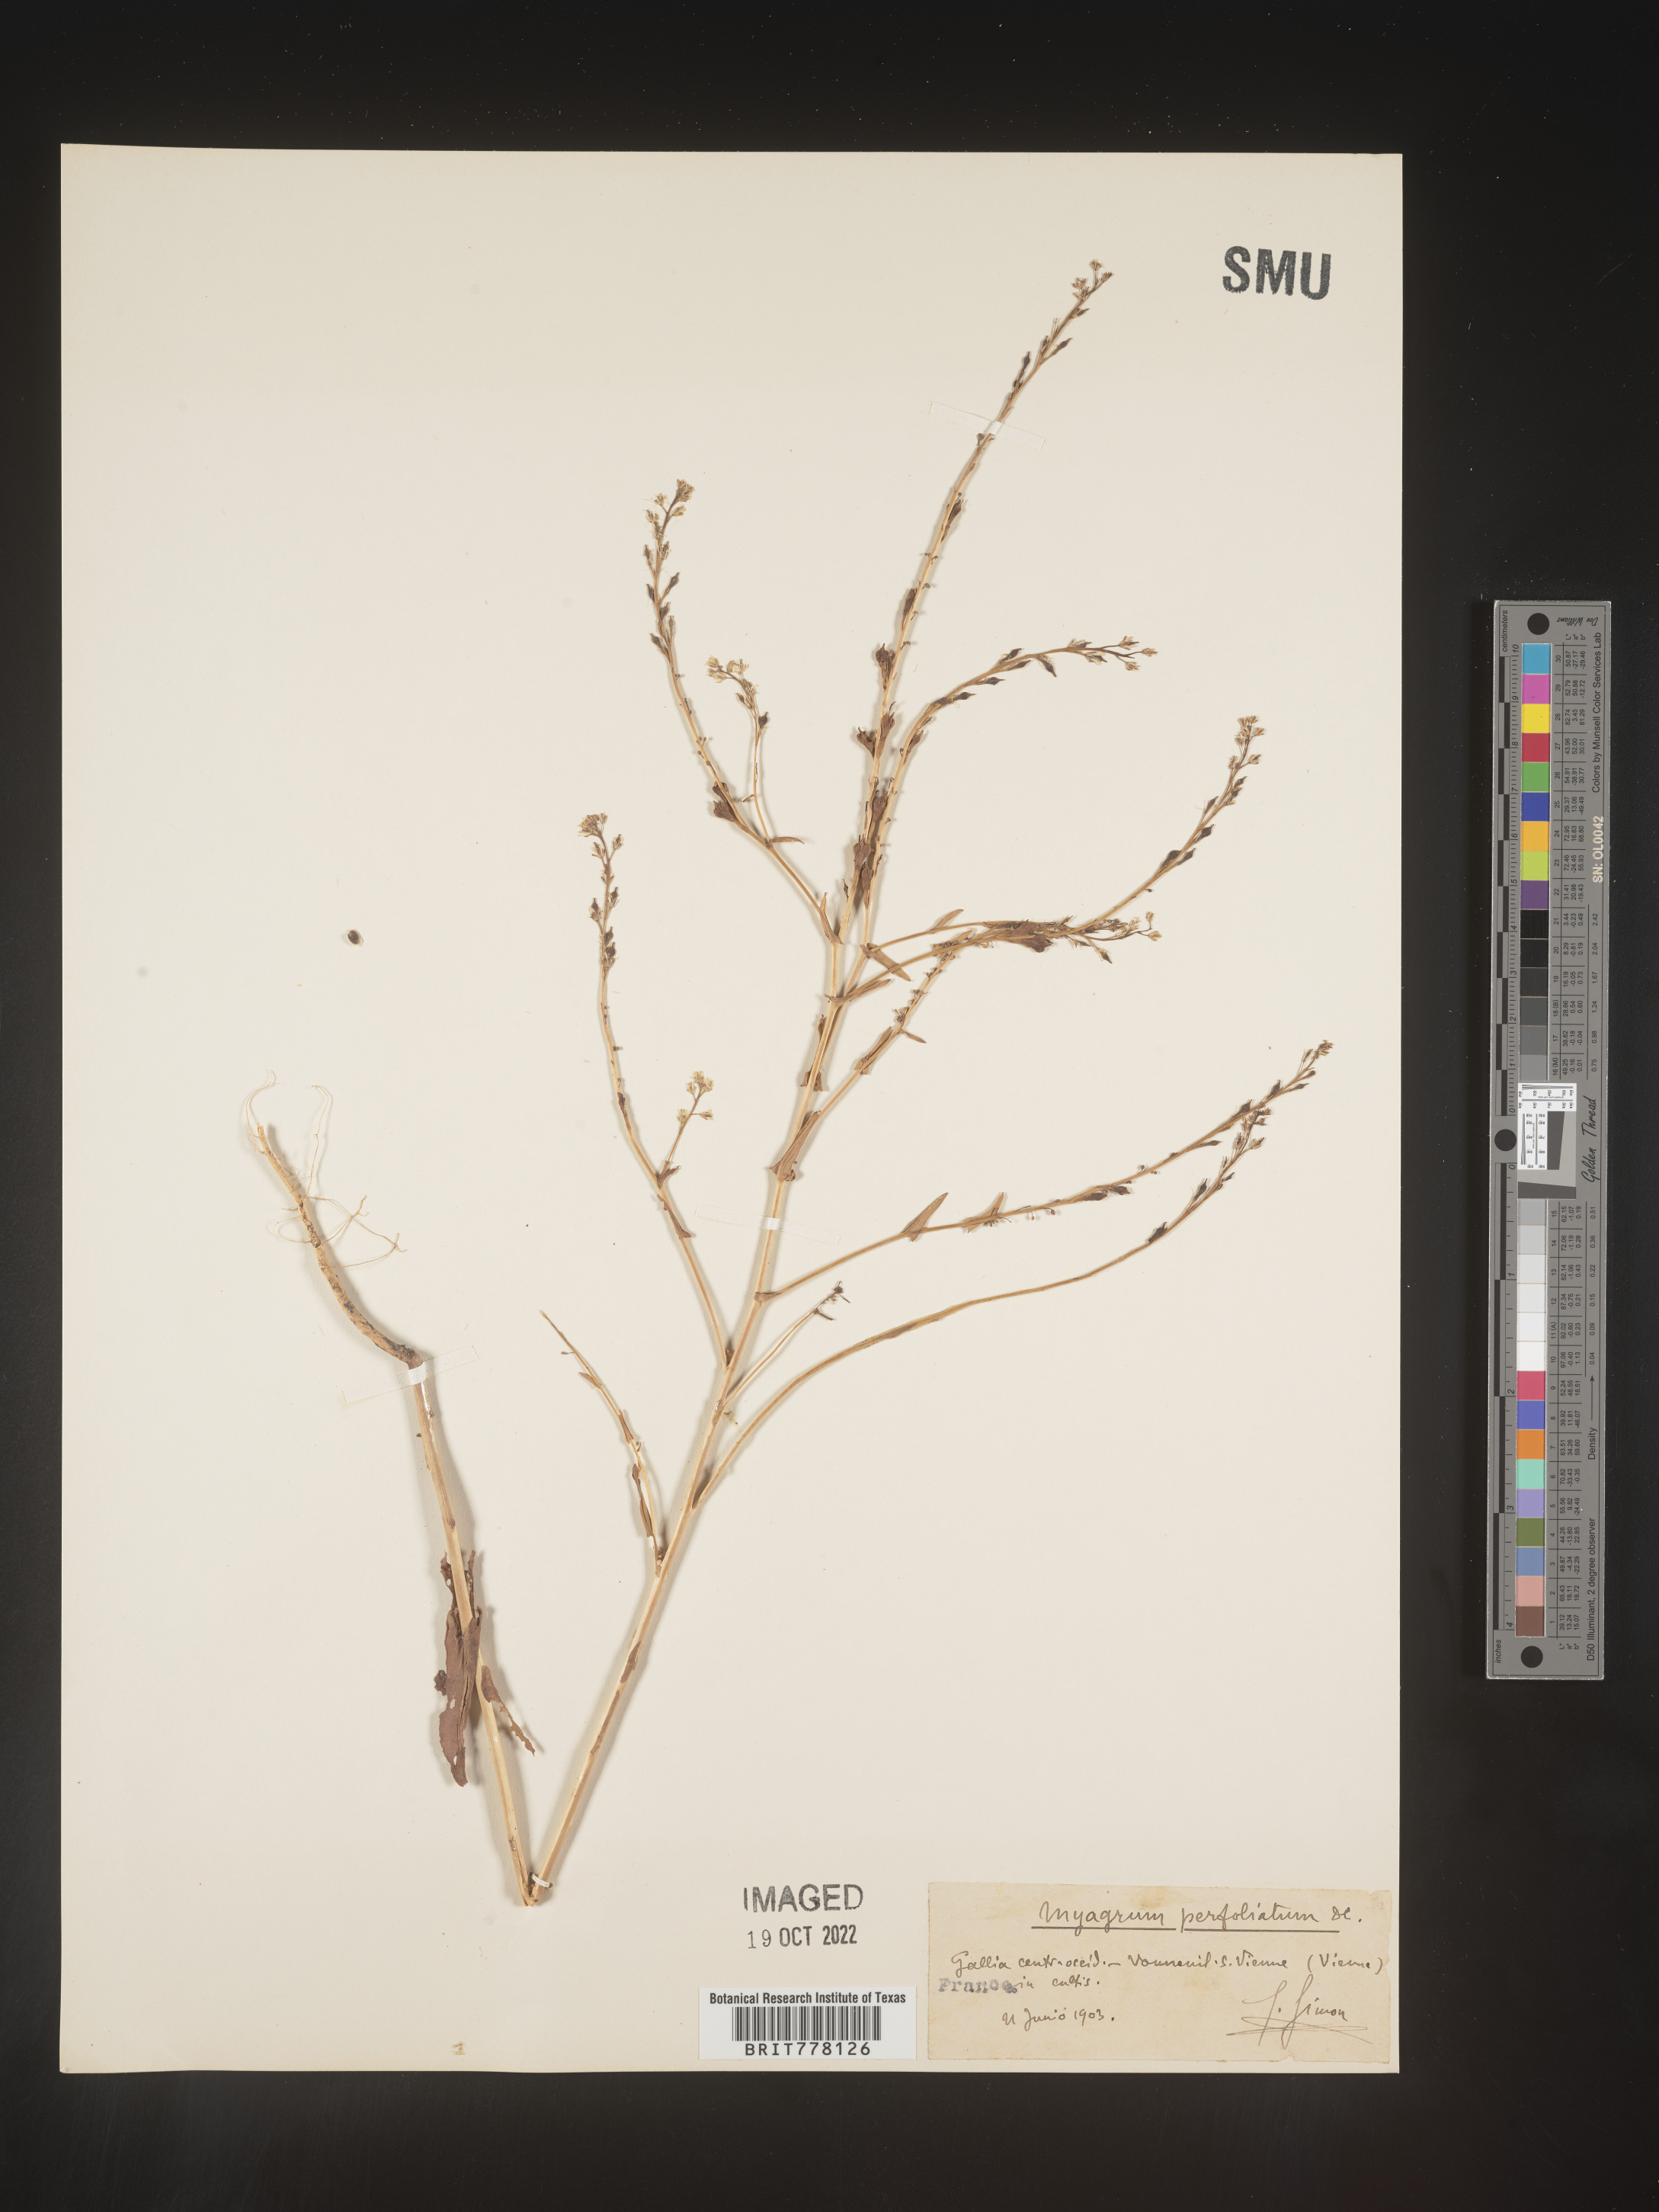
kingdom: Plantae
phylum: Tracheophyta
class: Magnoliopsida
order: Brassicales
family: Brassicaceae
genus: Myagrum
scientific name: Myagrum
